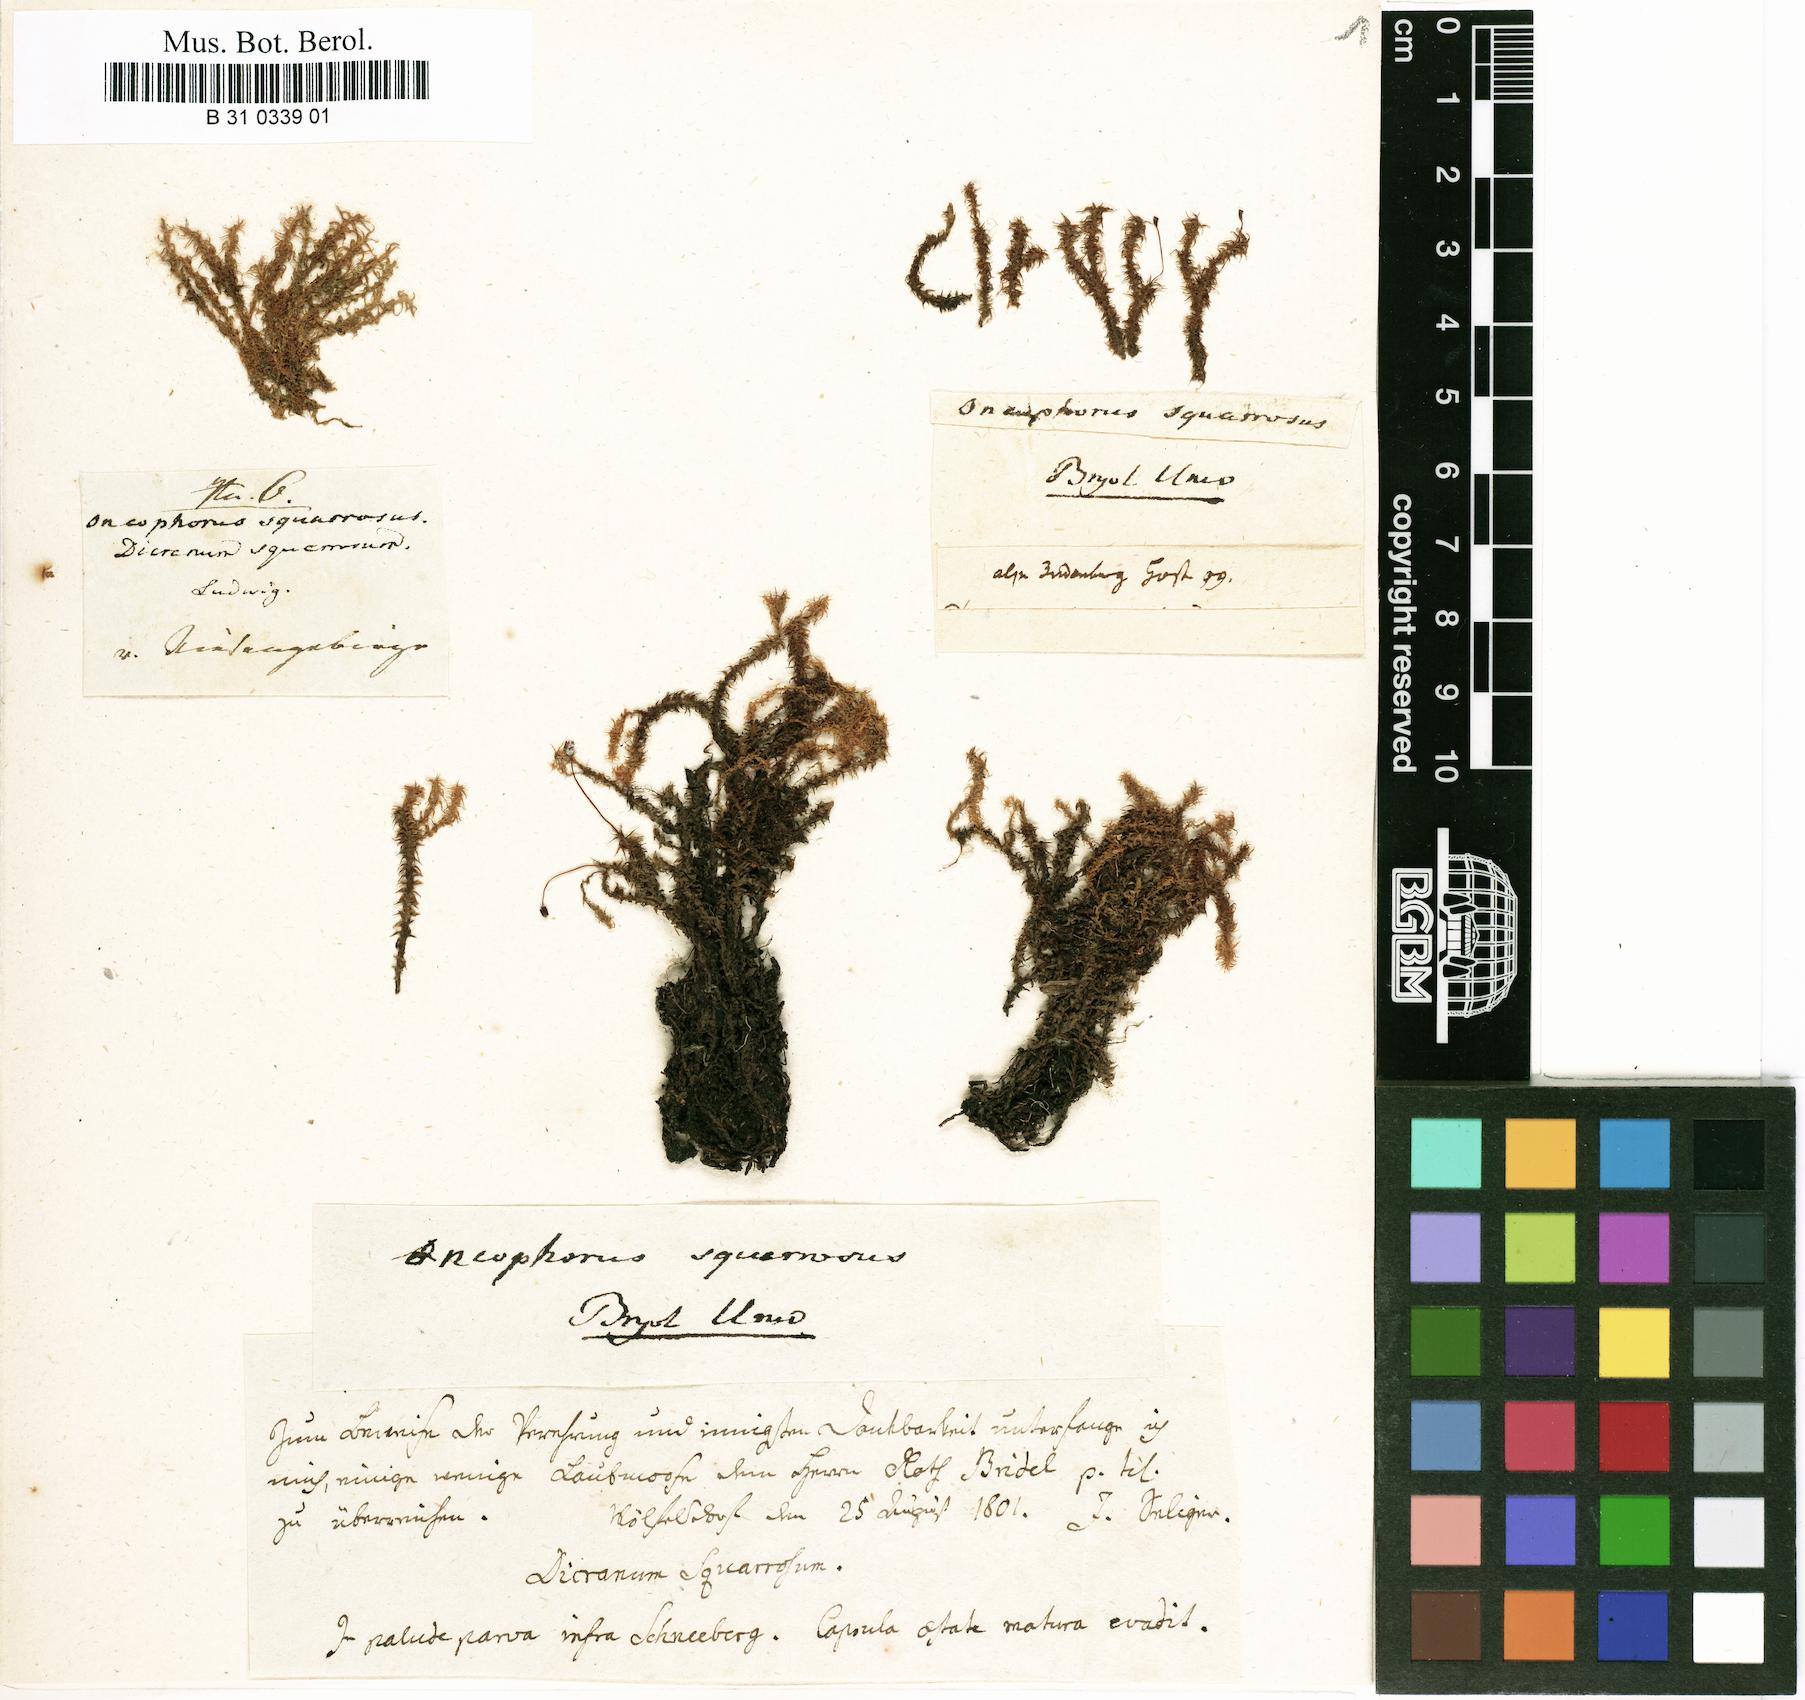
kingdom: Plantae
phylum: Bryophyta
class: Bryopsida
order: Dicranales
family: Aongstroemiaceae
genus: Diobelonella
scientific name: Diobelonella palustris
